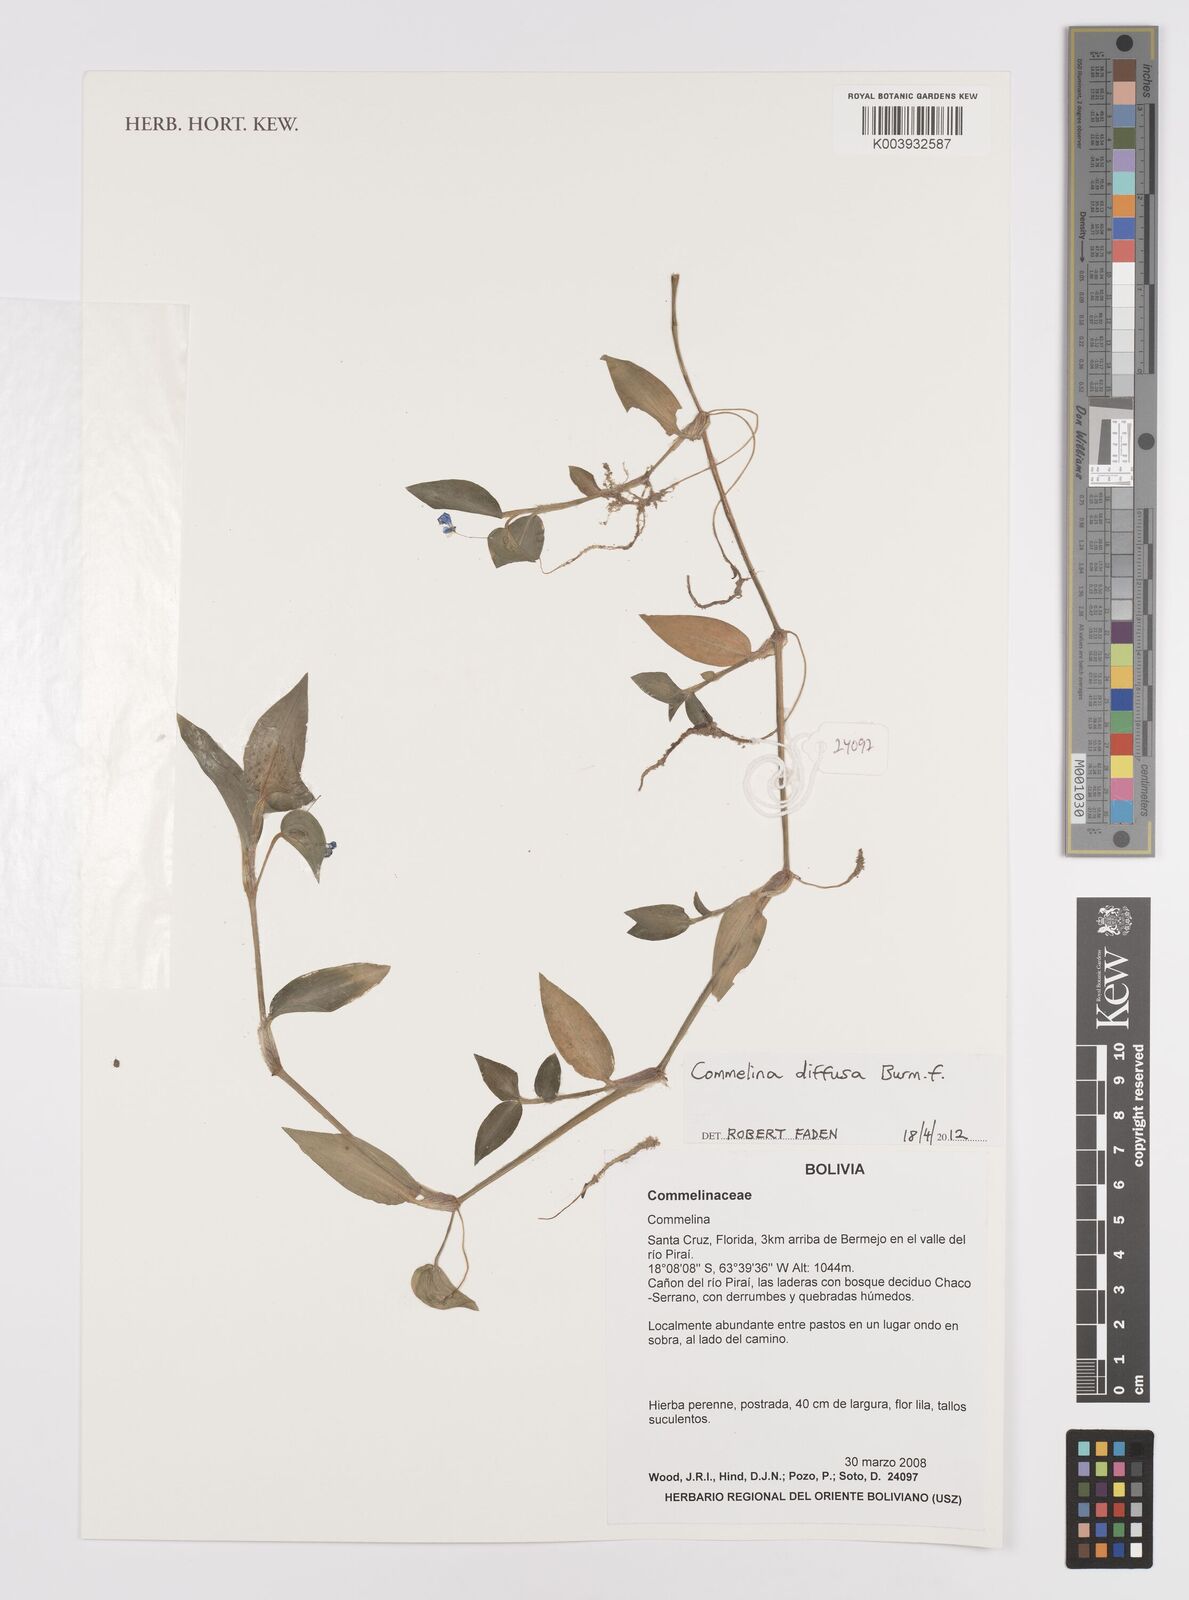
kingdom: Plantae
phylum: Tracheophyta
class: Liliopsida
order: Commelinales
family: Commelinaceae
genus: Commelina
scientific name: Commelina diffusa
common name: Climbing dayflower
